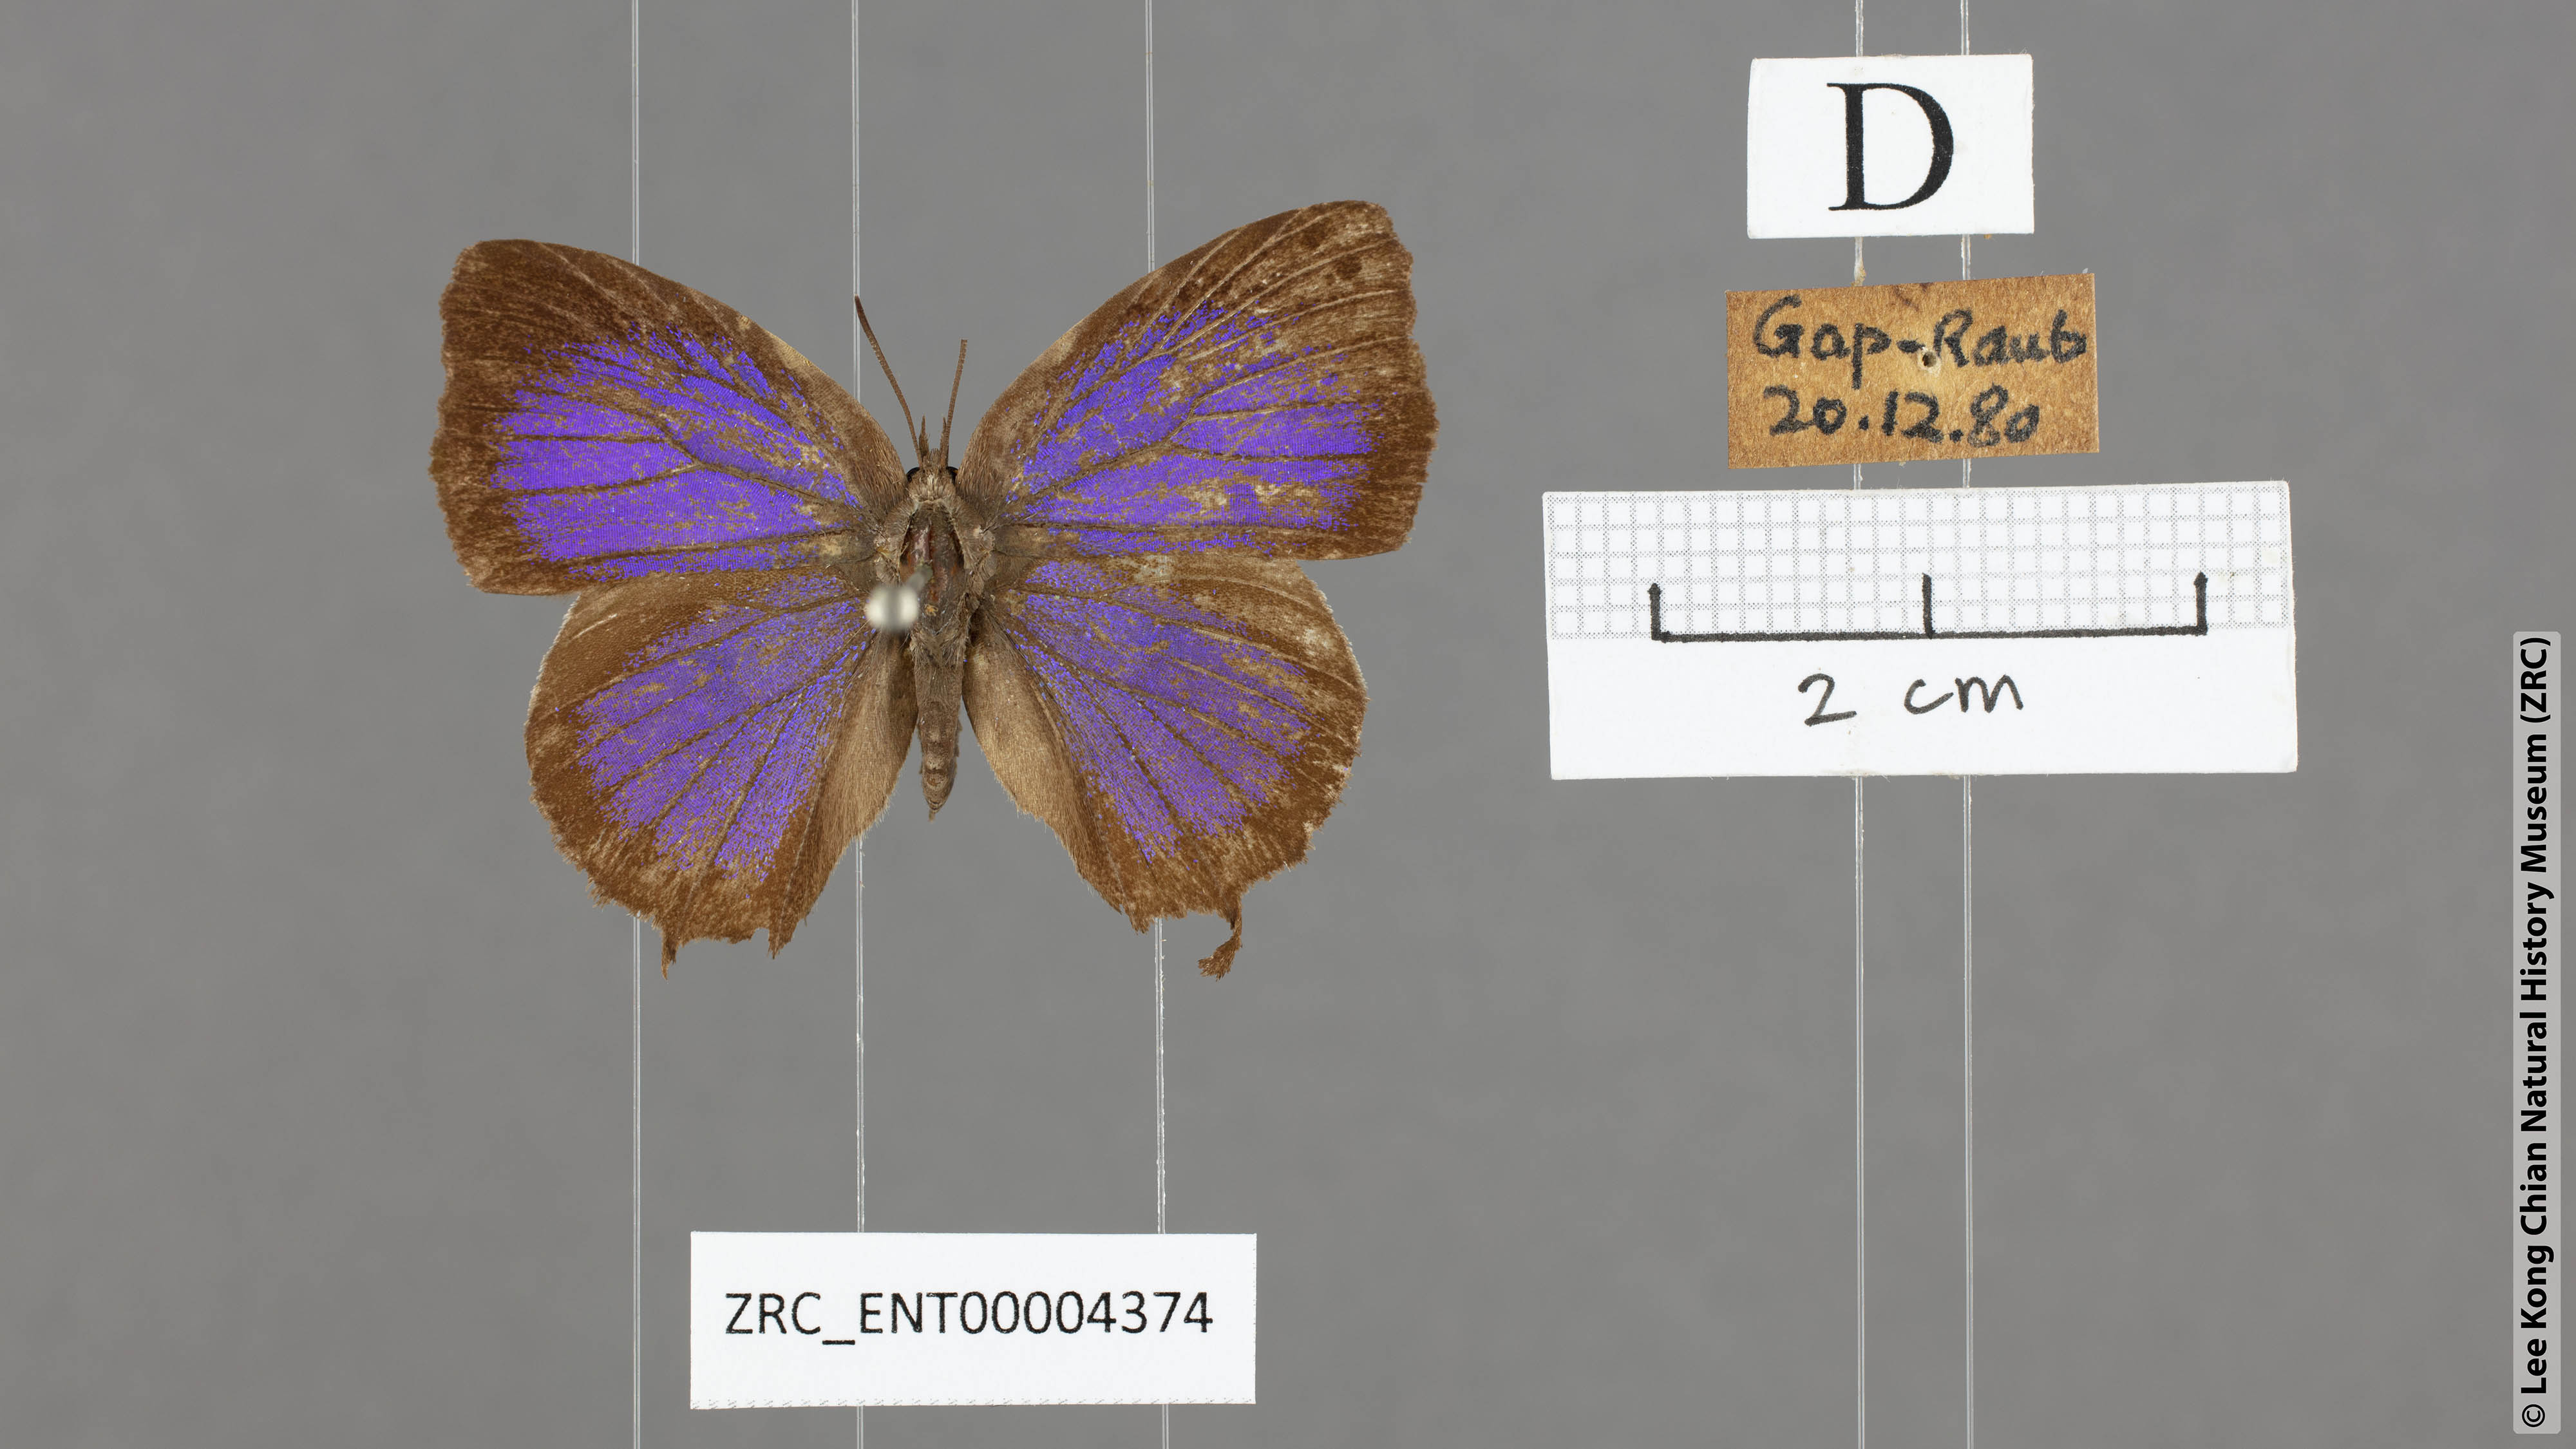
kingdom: Animalia
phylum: Arthropoda
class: Insecta
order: Lepidoptera
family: Lycaenidae
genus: Mahathala
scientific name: Mahathala ameria
